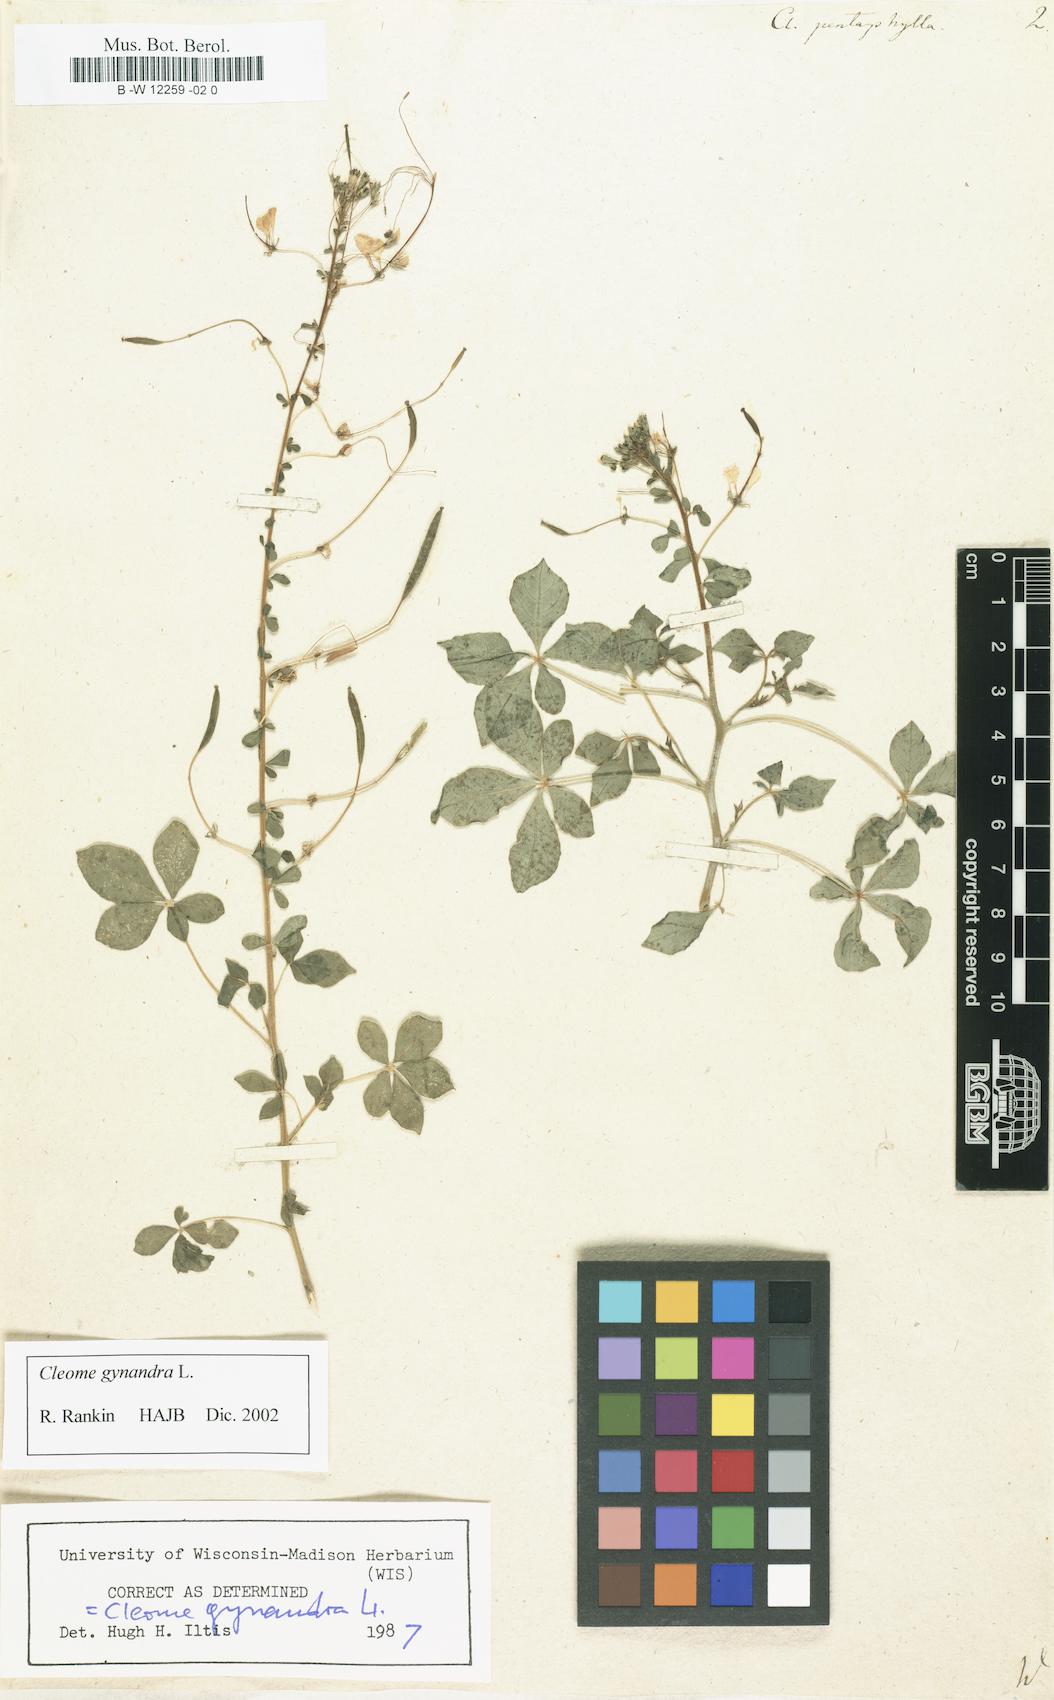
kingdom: Plantae
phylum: Tracheophyta
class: Magnoliopsida
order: Brassicales
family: Cleomaceae
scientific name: Cleomaceae
